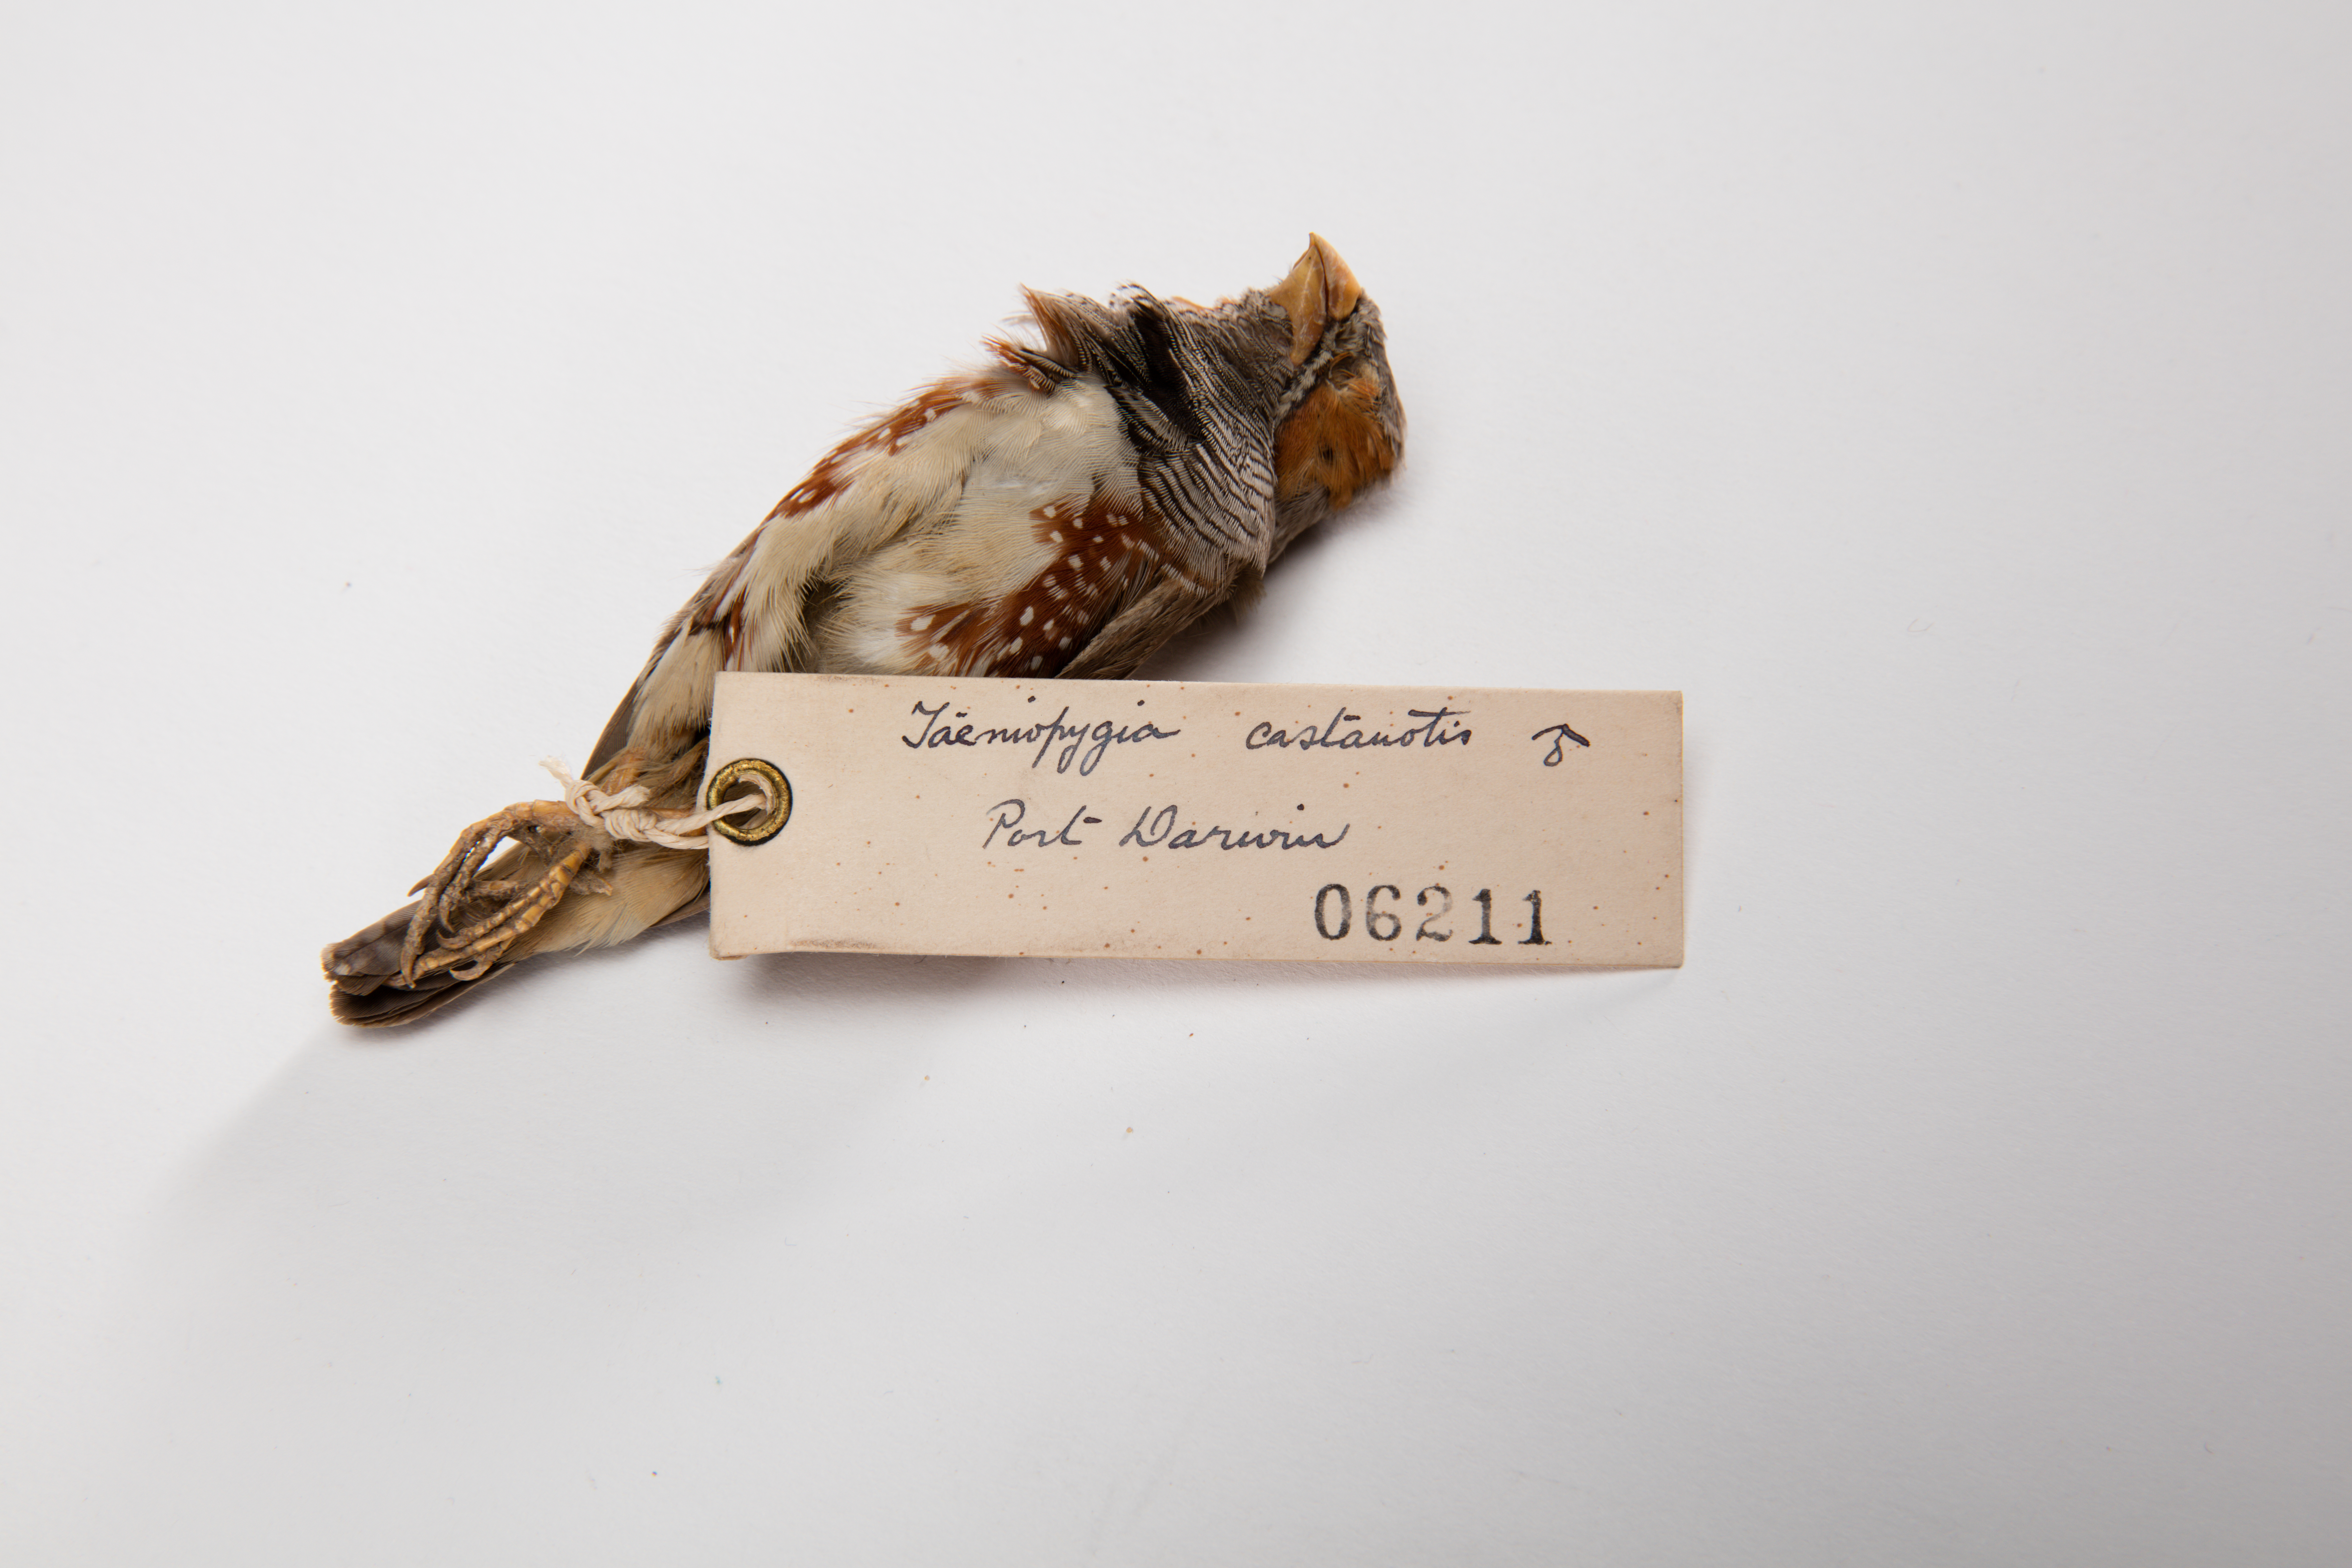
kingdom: Animalia
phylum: Chordata
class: Aves
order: Passeriformes
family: Estrildidae
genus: Taeniopygia
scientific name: Taeniopygia guttata
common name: Zebra finch
